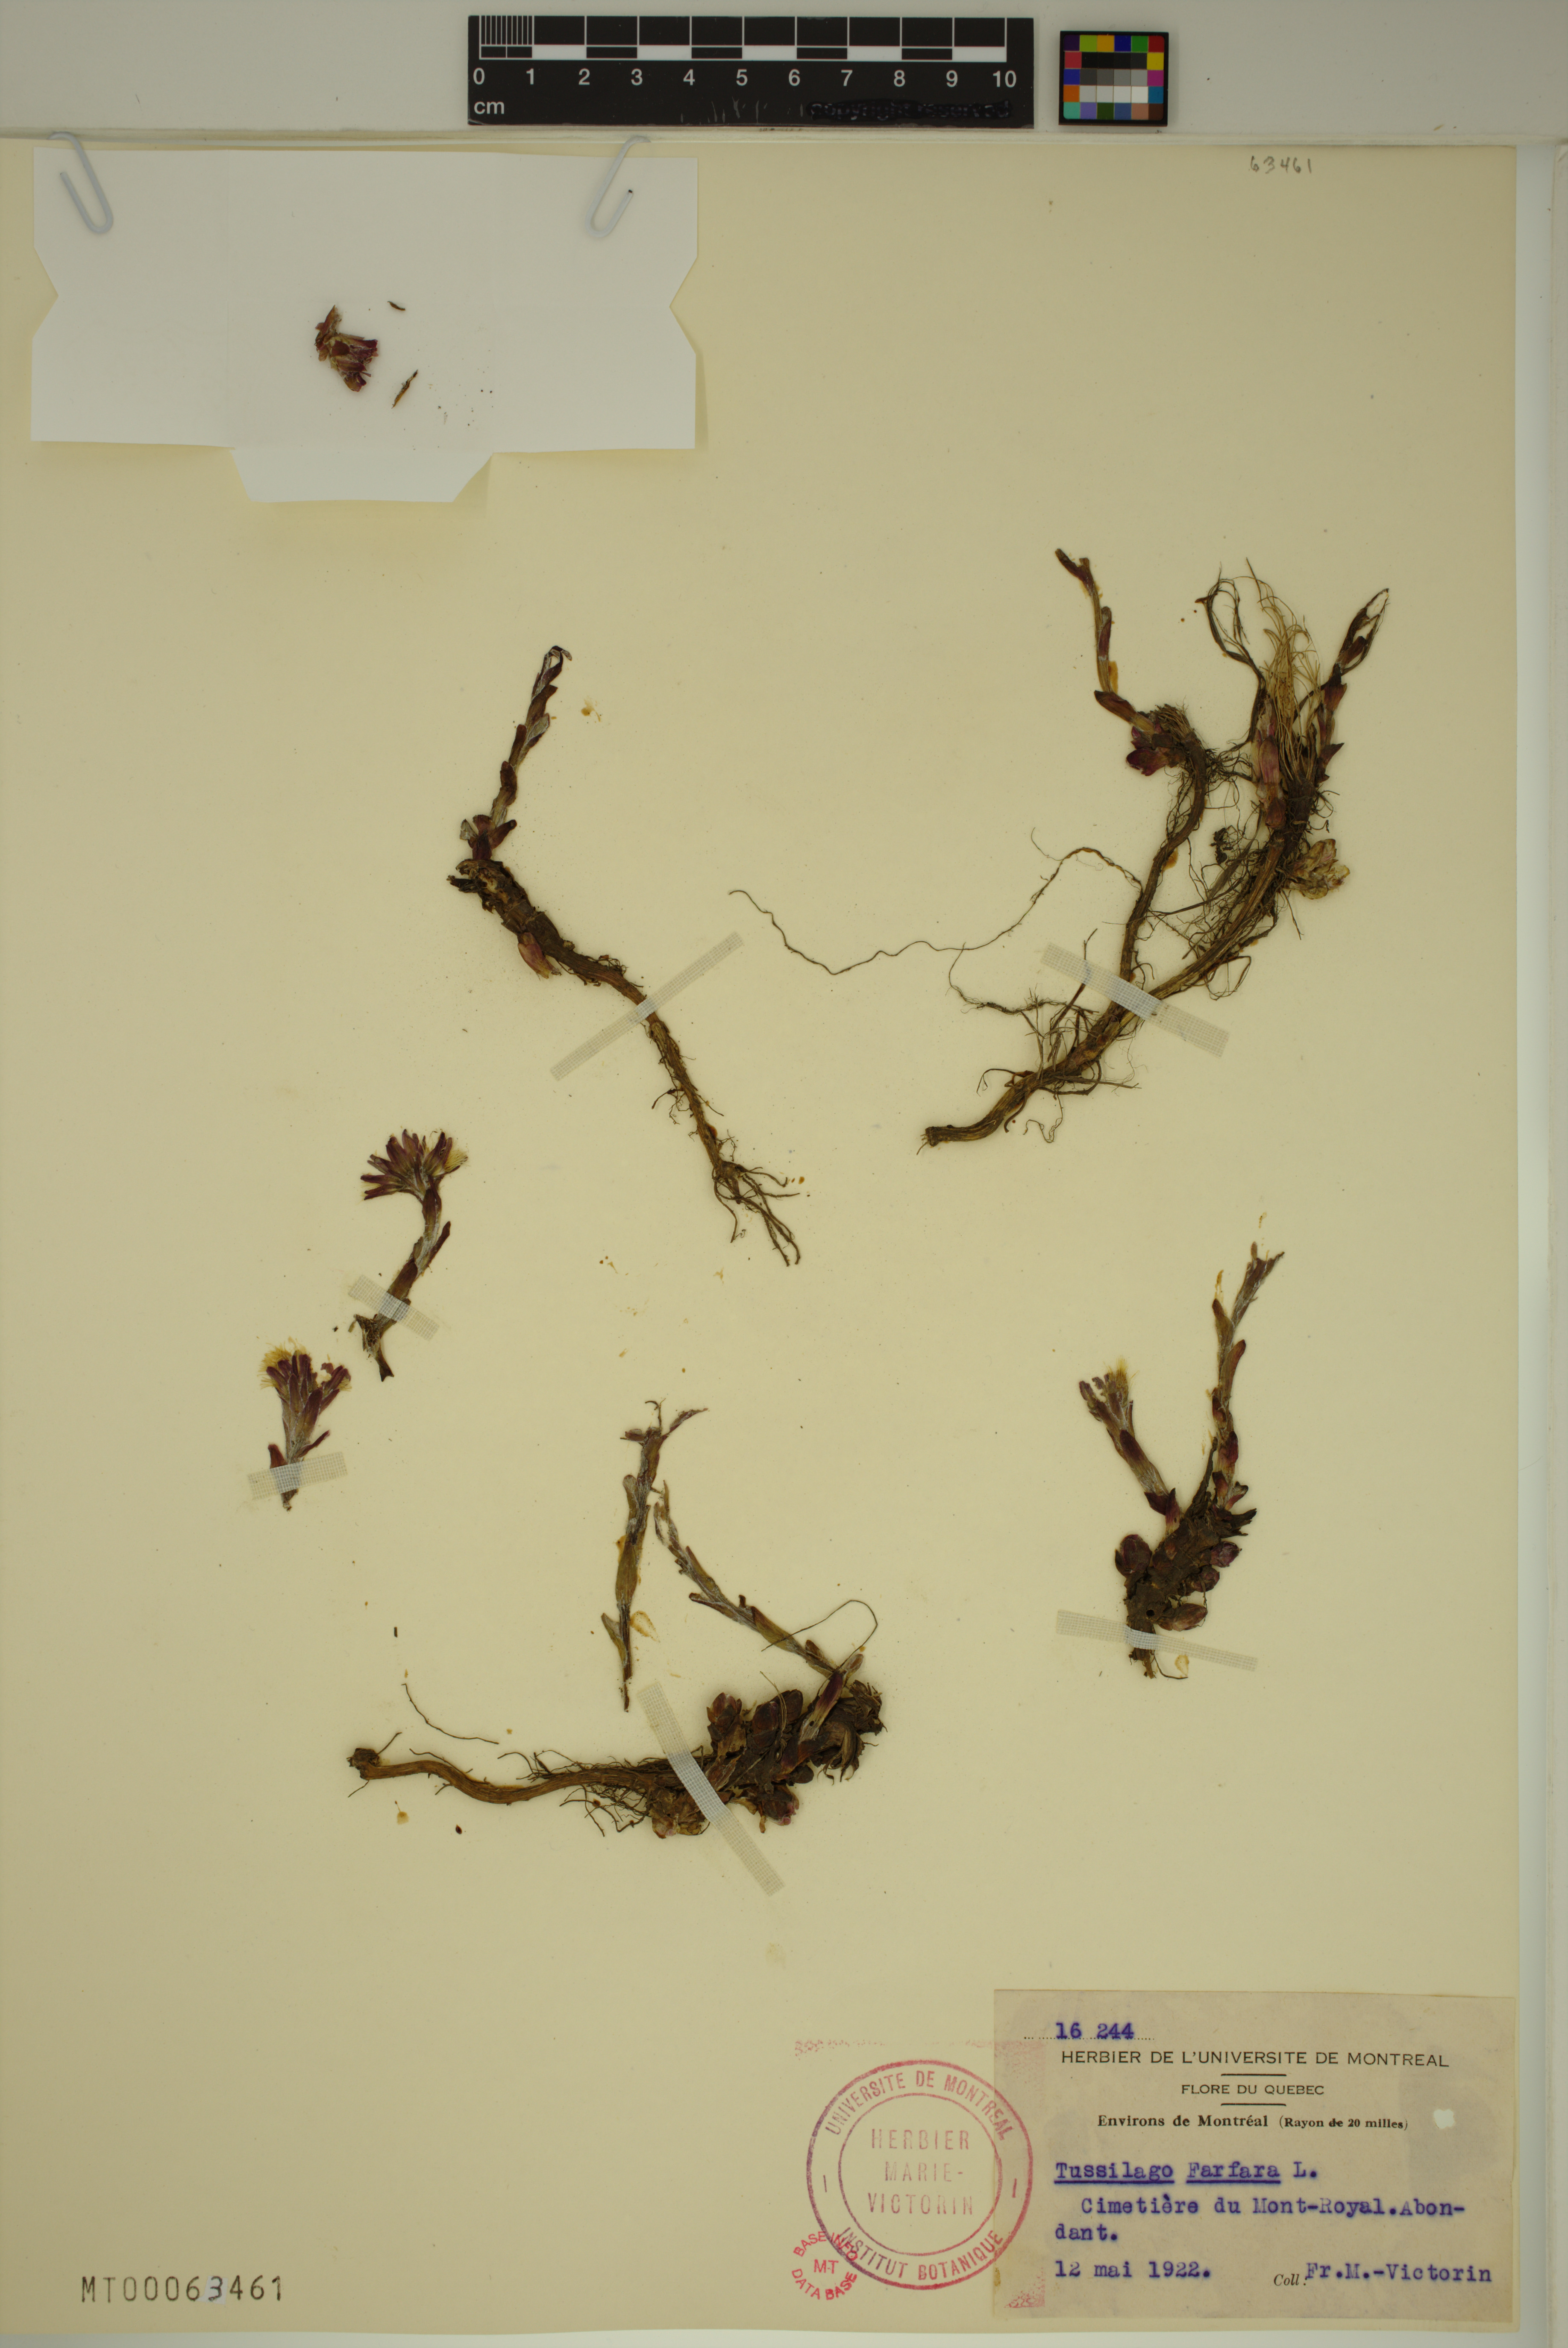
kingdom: Plantae
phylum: Tracheophyta
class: Magnoliopsida
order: Asterales
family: Asteraceae
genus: Tussilago
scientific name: Tussilago farfara
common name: Coltsfoot
